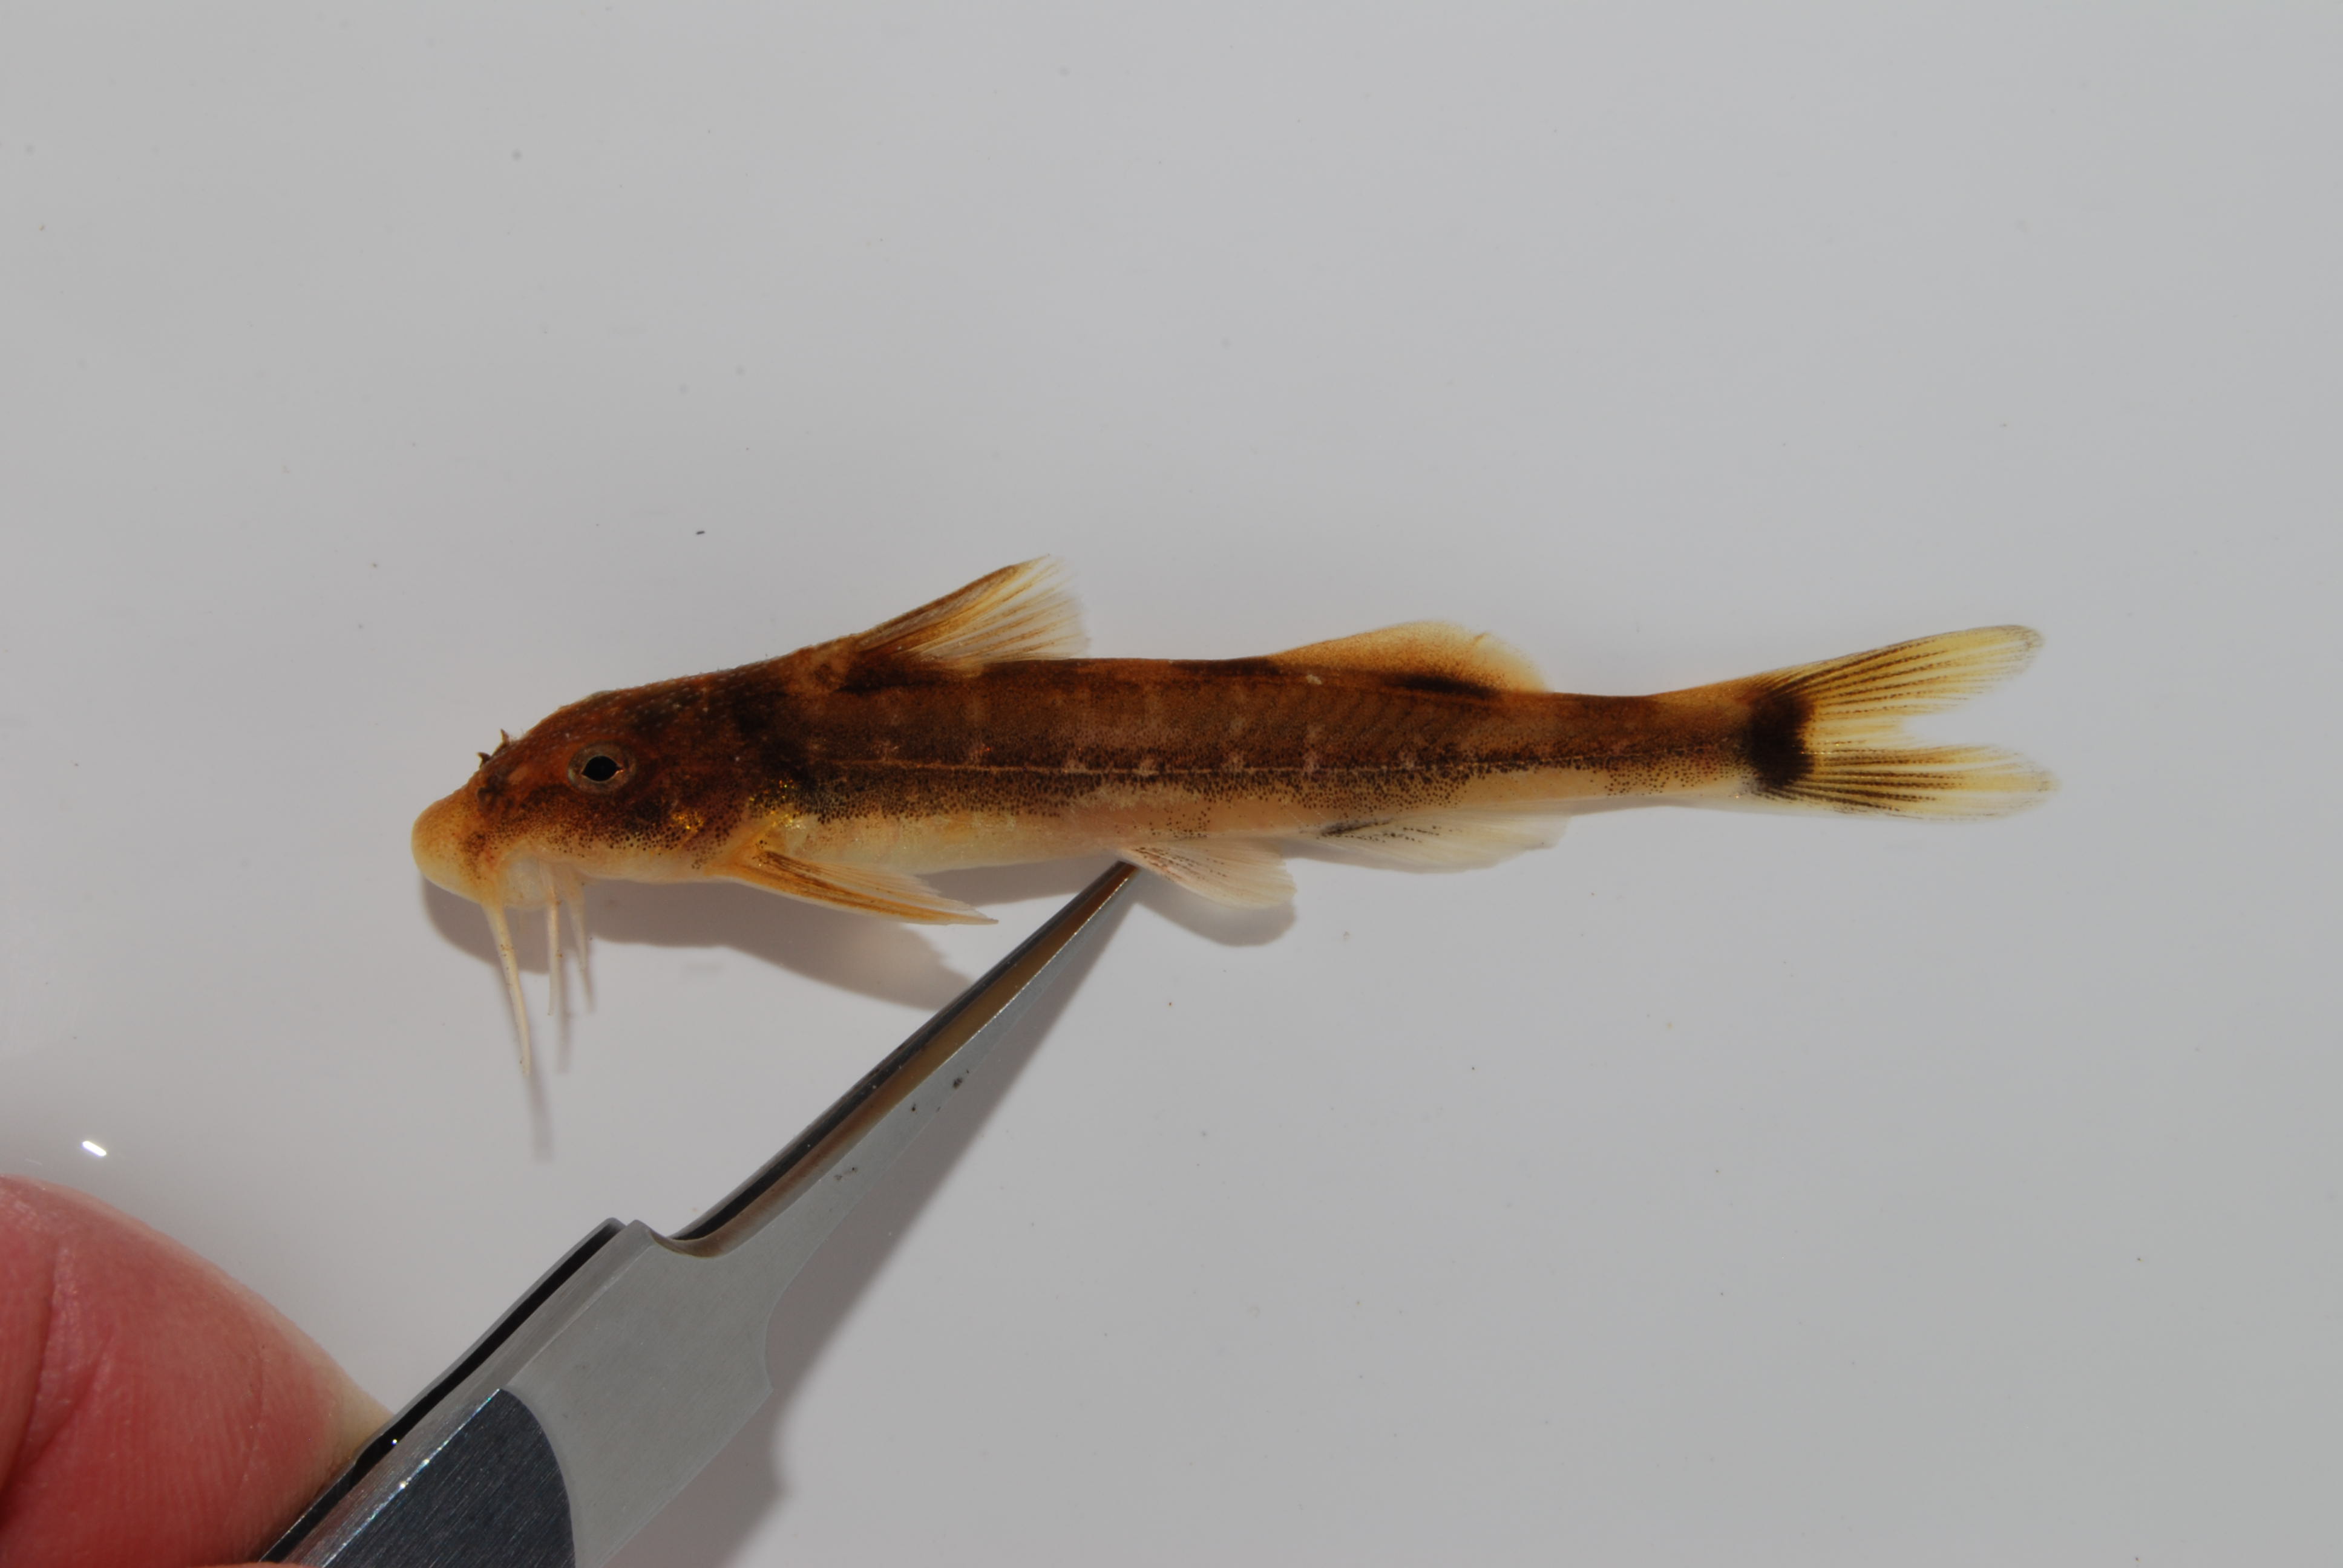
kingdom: Animalia
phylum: Chordata
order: Siluriformes
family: Mochokidae
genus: Chiloglanis
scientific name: Chiloglanis swierstrai
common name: Lowveld suckermouth
